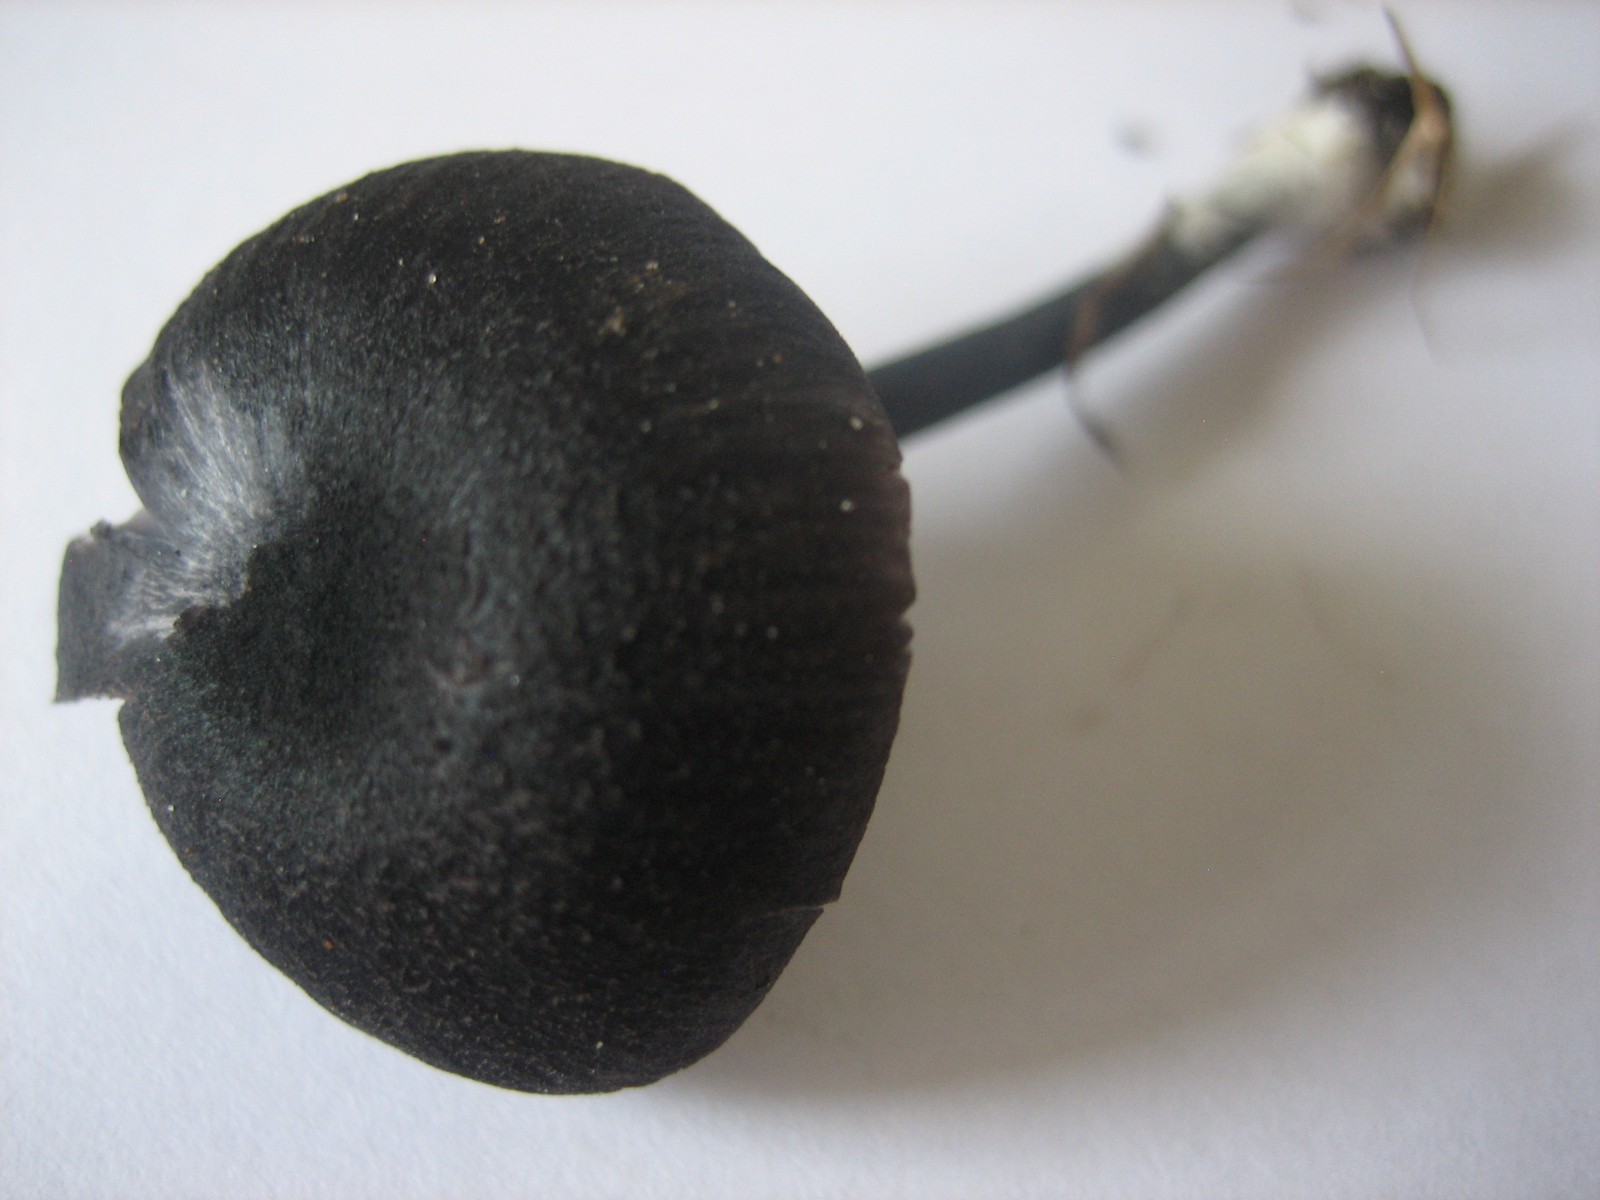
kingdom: Fungi
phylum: Basidiomycota
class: Agaricomycetes
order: Agaricales
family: Entolomataceae
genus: Entoloma
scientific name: Entoloma chalybeum
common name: blåbladet rødblad
